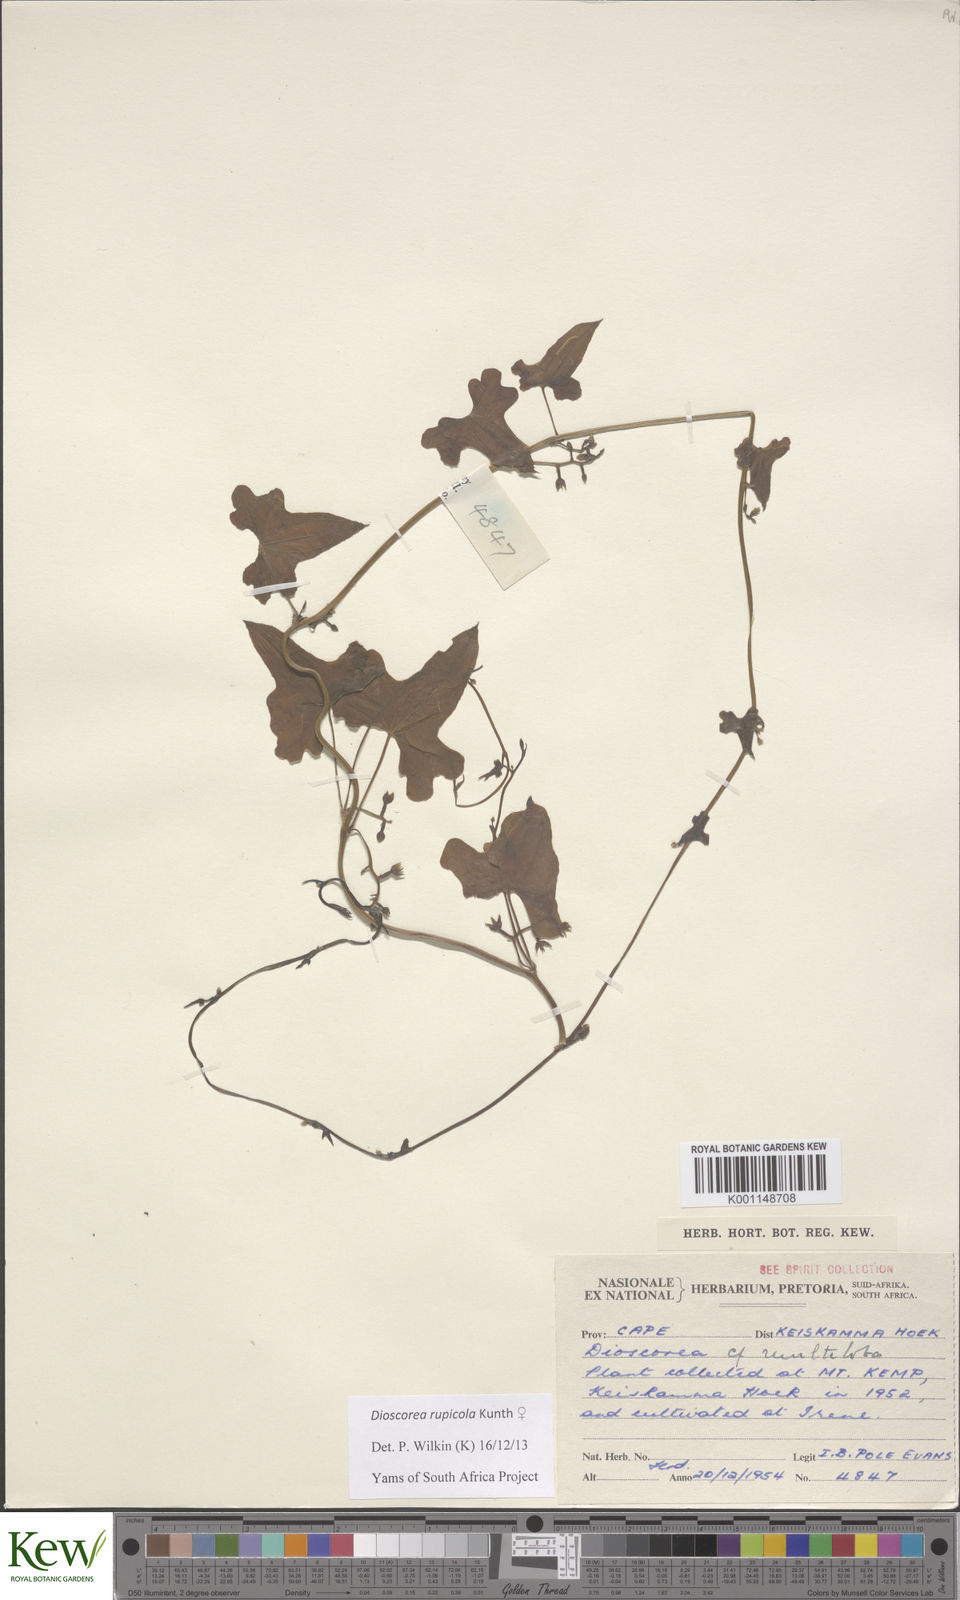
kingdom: Plantae
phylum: Tracheophyta
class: Liliopsida
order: Dioscoreales
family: Dioscoreaceae
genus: Dioscorea
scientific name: Dioscorea rupicola
